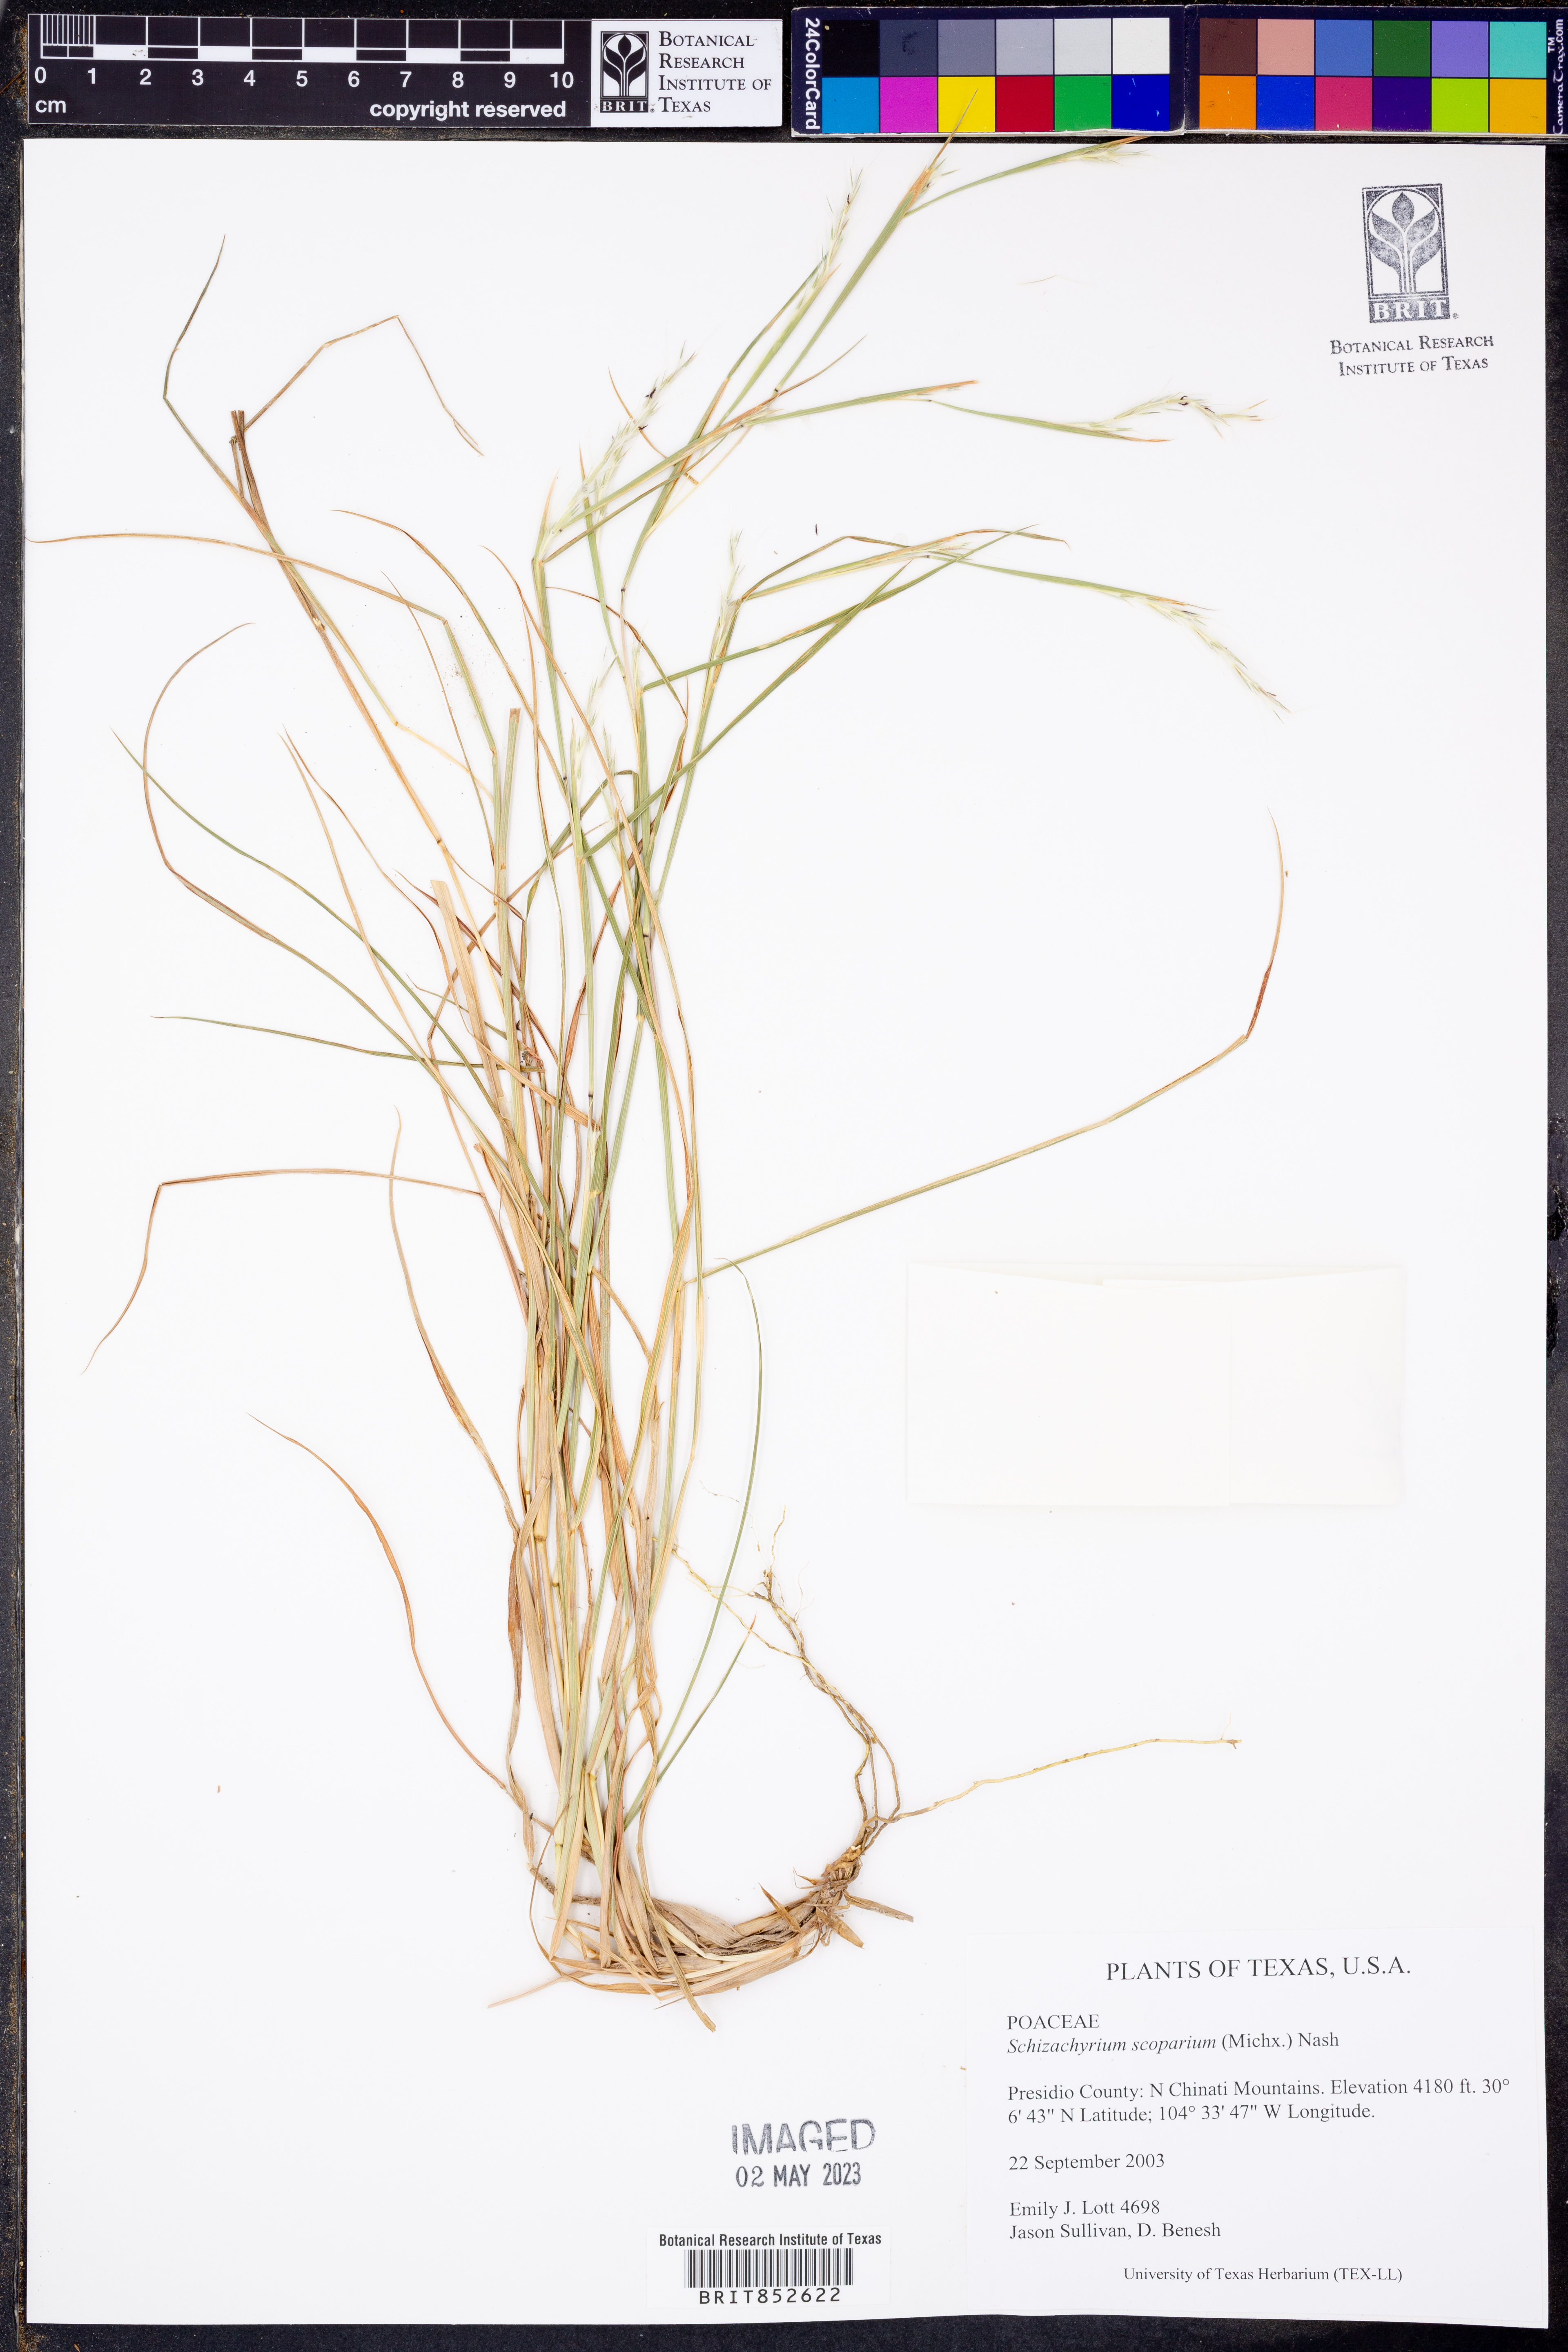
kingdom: Plantae
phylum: Tracheophyta
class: Liliopsida
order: Poales
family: Poaceae
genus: Schizachyrium
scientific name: Schizachyrium scoparium
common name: Little bluestem
